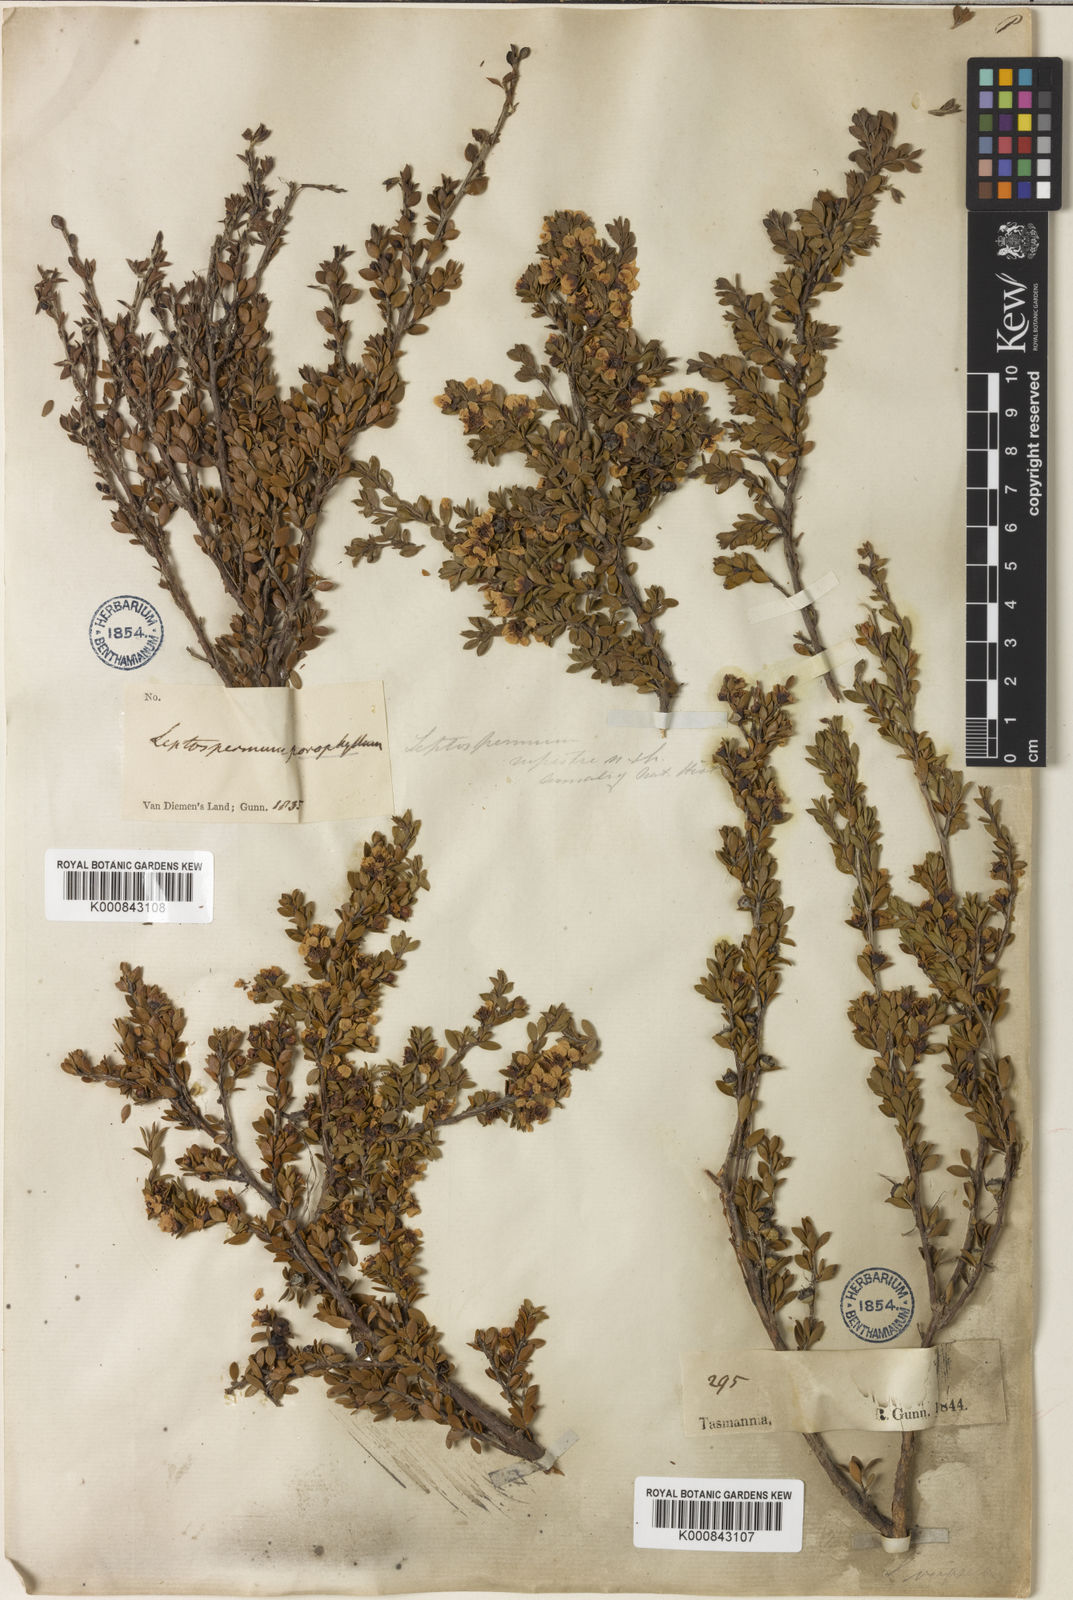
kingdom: Plantae
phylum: Tracheophyta
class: Magnoliopsida
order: Myrtales
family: Myrtaceae
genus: Leptospermum
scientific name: Leptospermum rupestre
